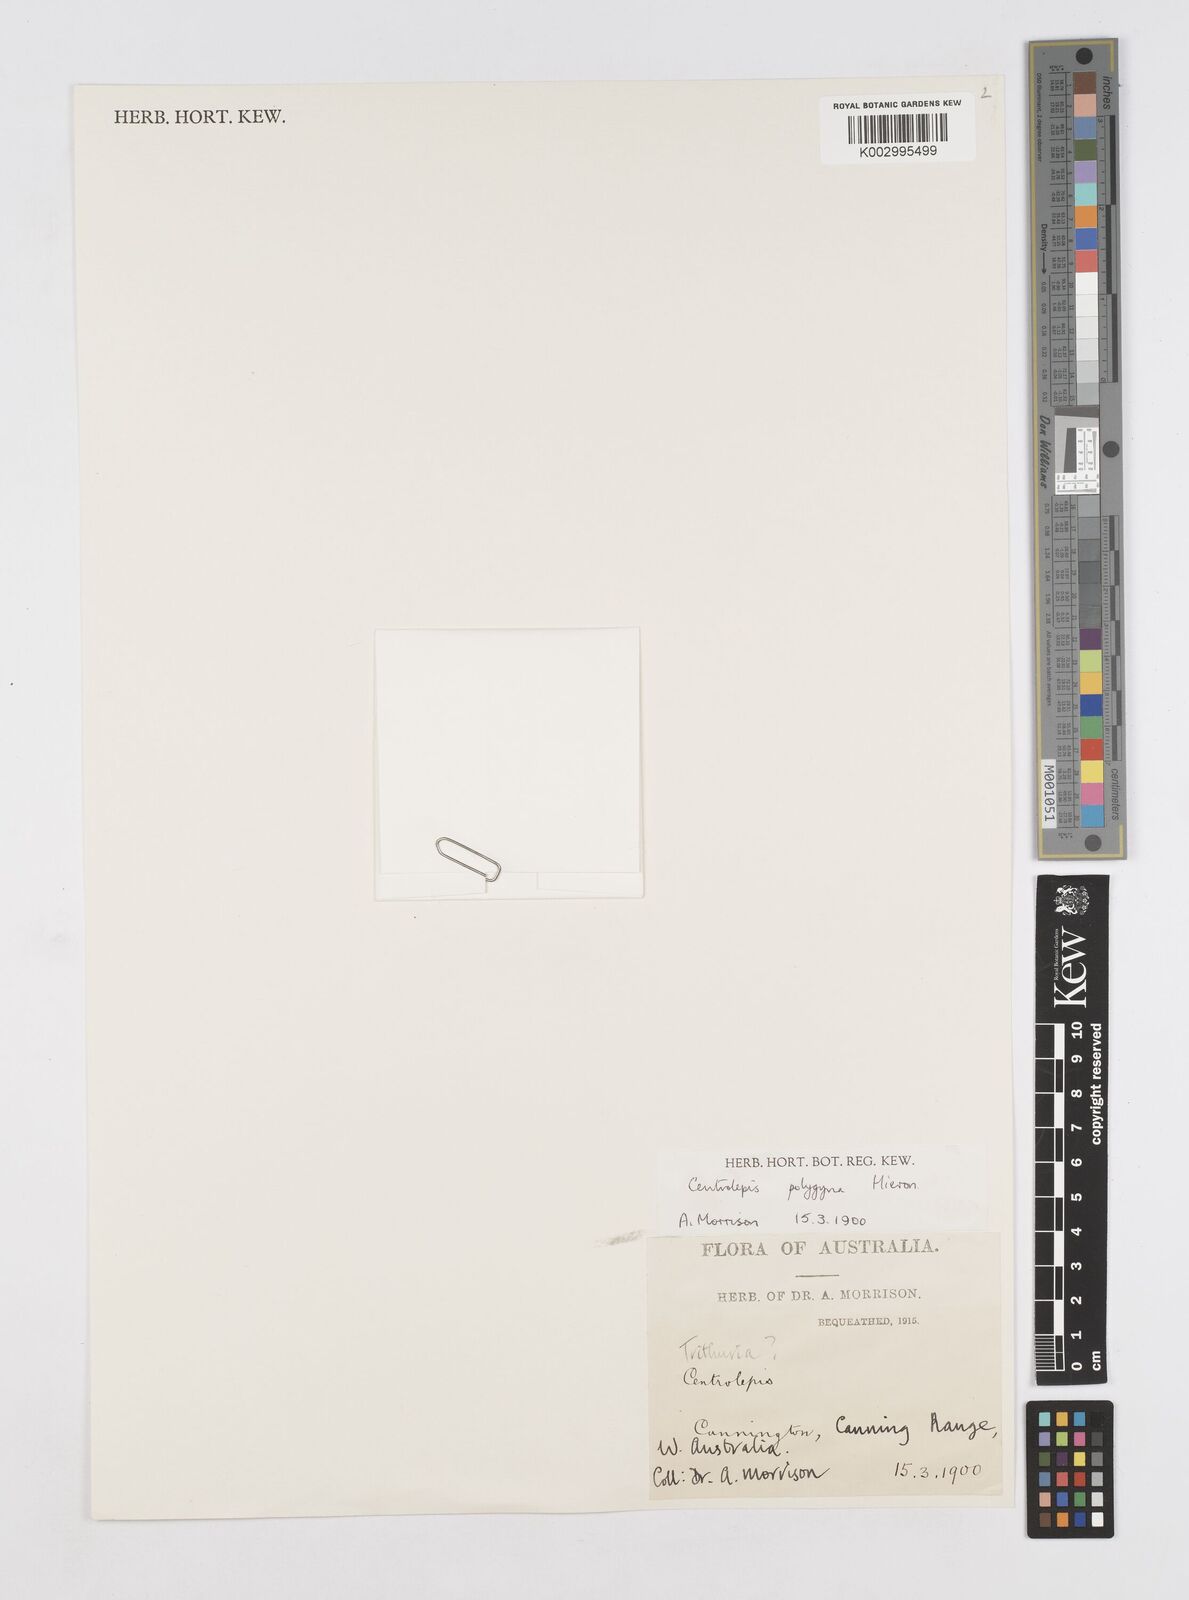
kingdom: Plantae
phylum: Tracheophyta
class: Liliopsida
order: Poales
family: Restionaceae
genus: Centrolepis
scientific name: Centrolepis polygyna
